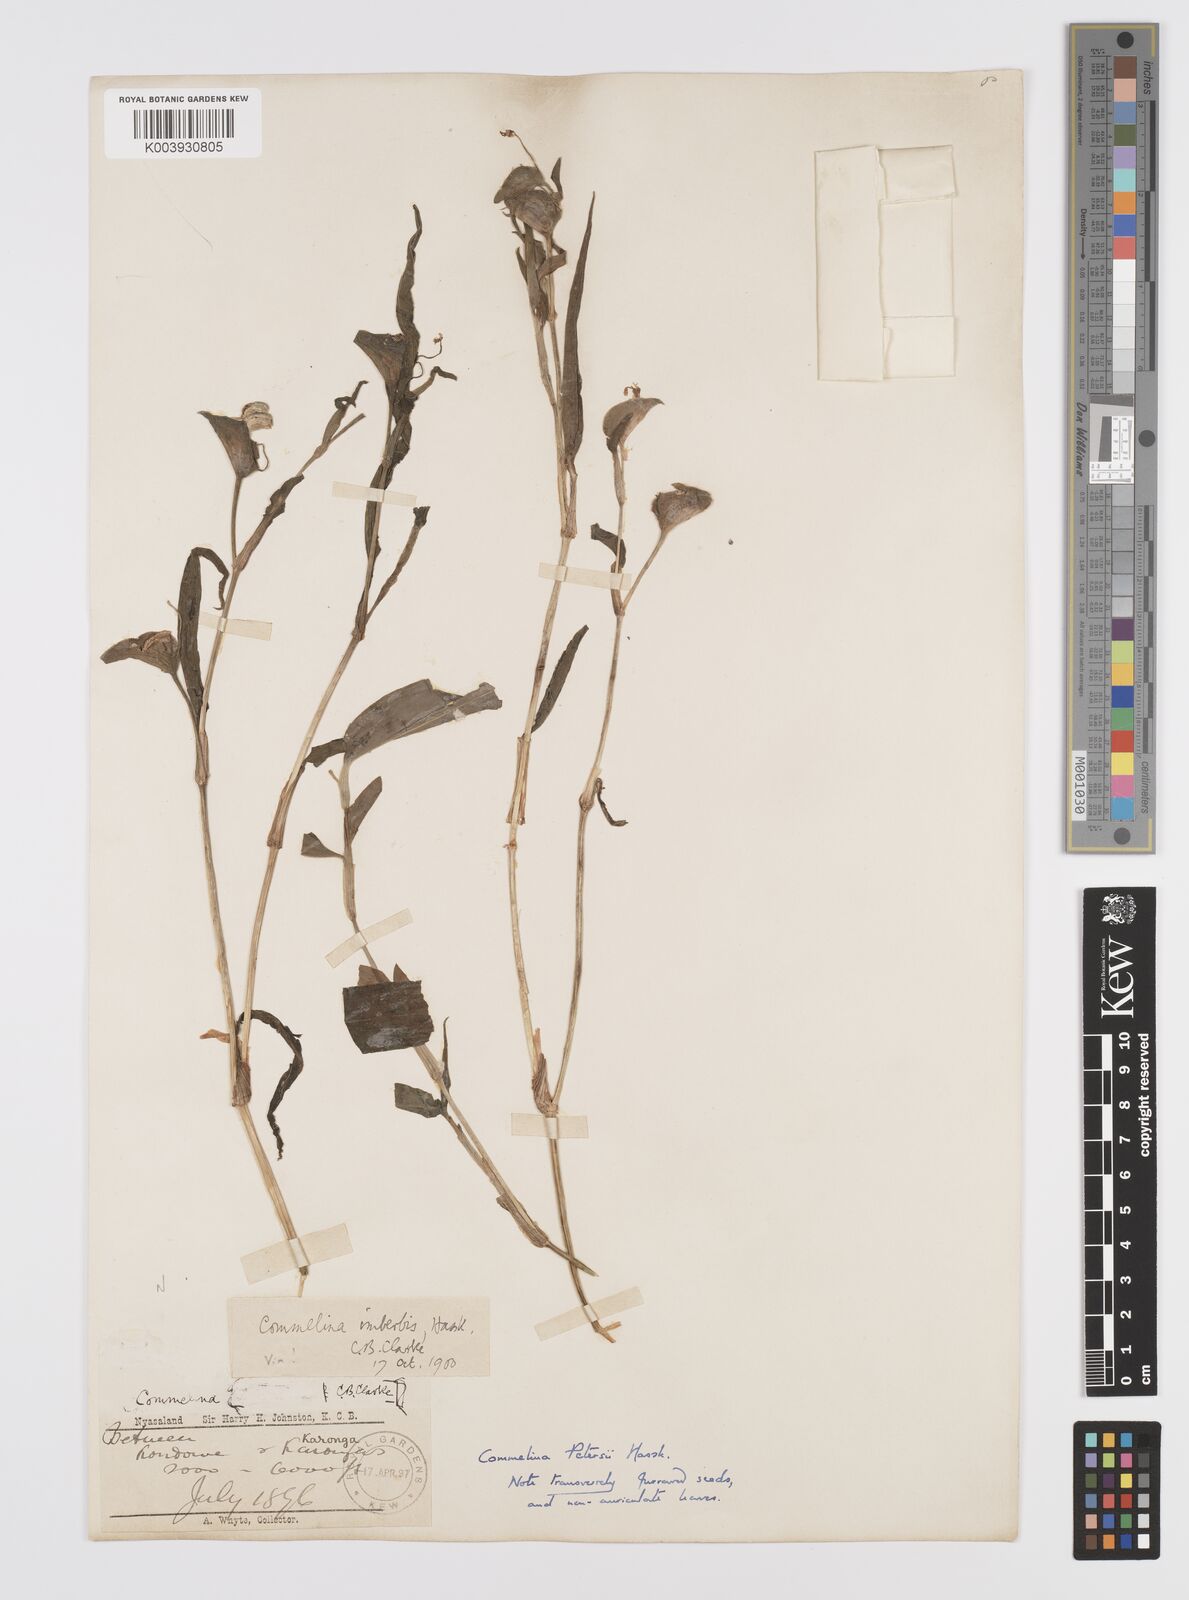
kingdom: Plantae
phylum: Tracheophyta
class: Liliopsida
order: Commelinales
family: Commelinaceae
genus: Commelina
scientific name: Commelina petersii
